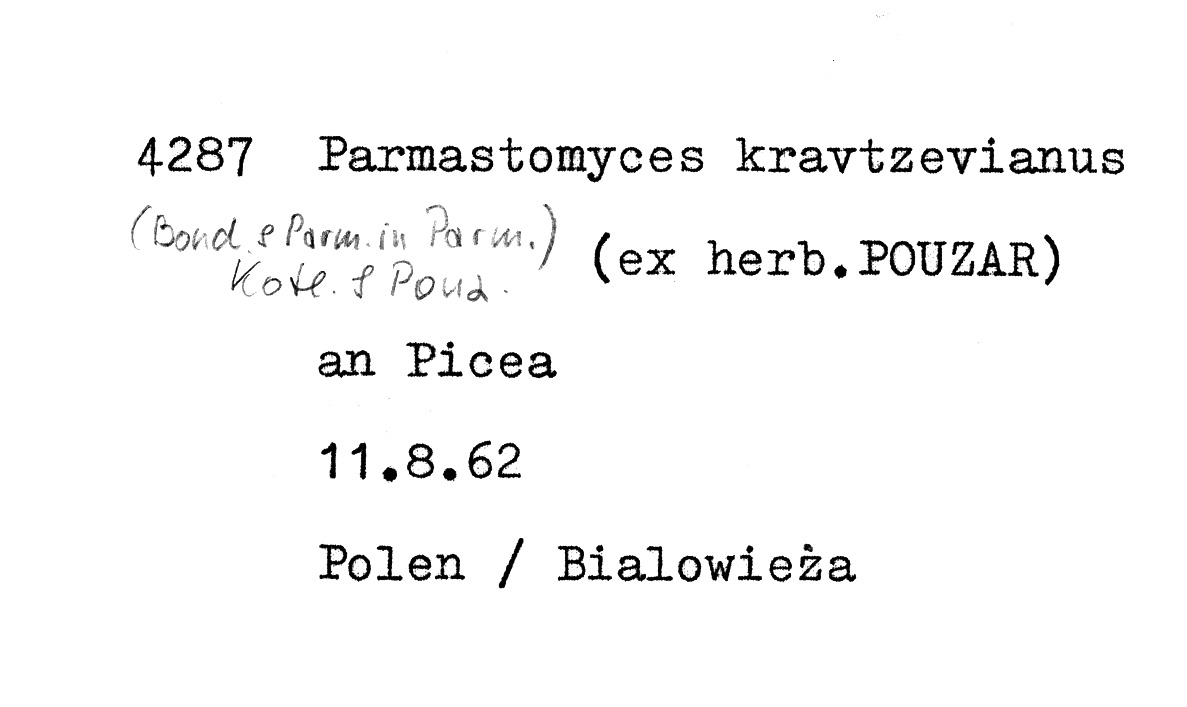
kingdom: Plantae
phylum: Tracheophyta
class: Pinopsida
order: Pinales
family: Pinaceae
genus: Picea
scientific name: Picea abies
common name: Norway spruce
